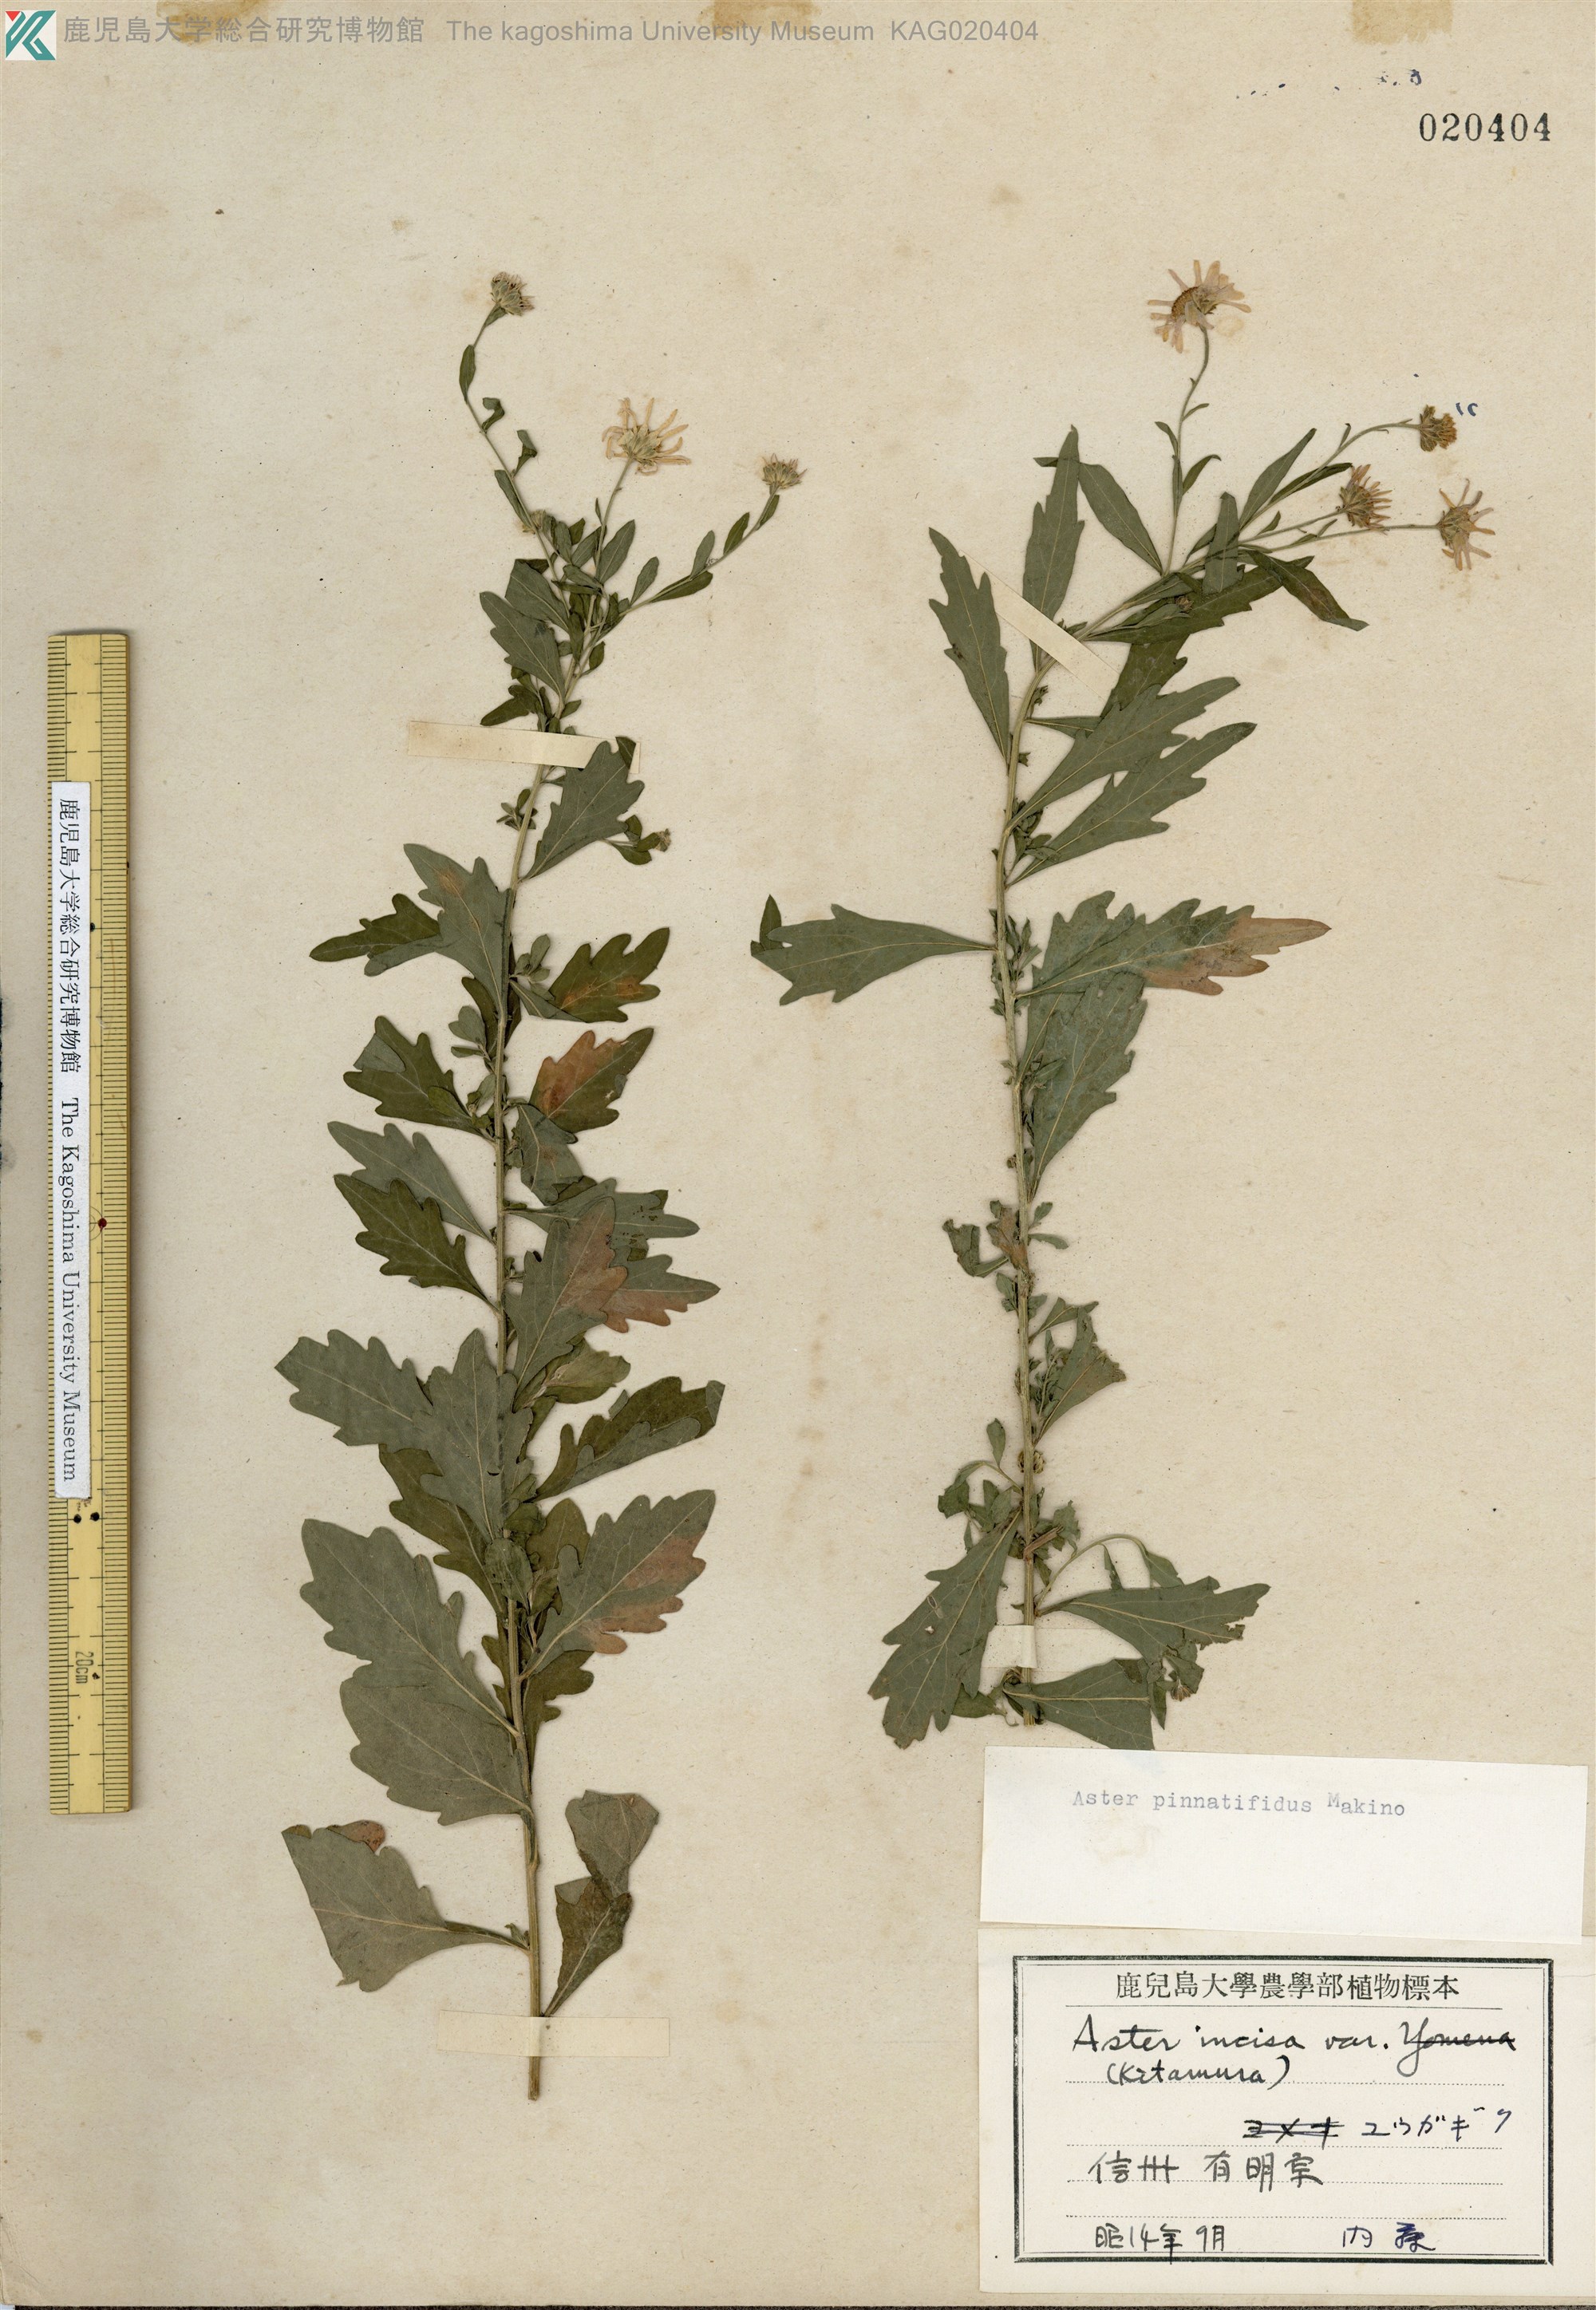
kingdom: Plantae
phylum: Tracheophyta
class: Magnoliopsida
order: Asterales
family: Asteraceae
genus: Kalimeris
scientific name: Kalimeris pinnatifida
